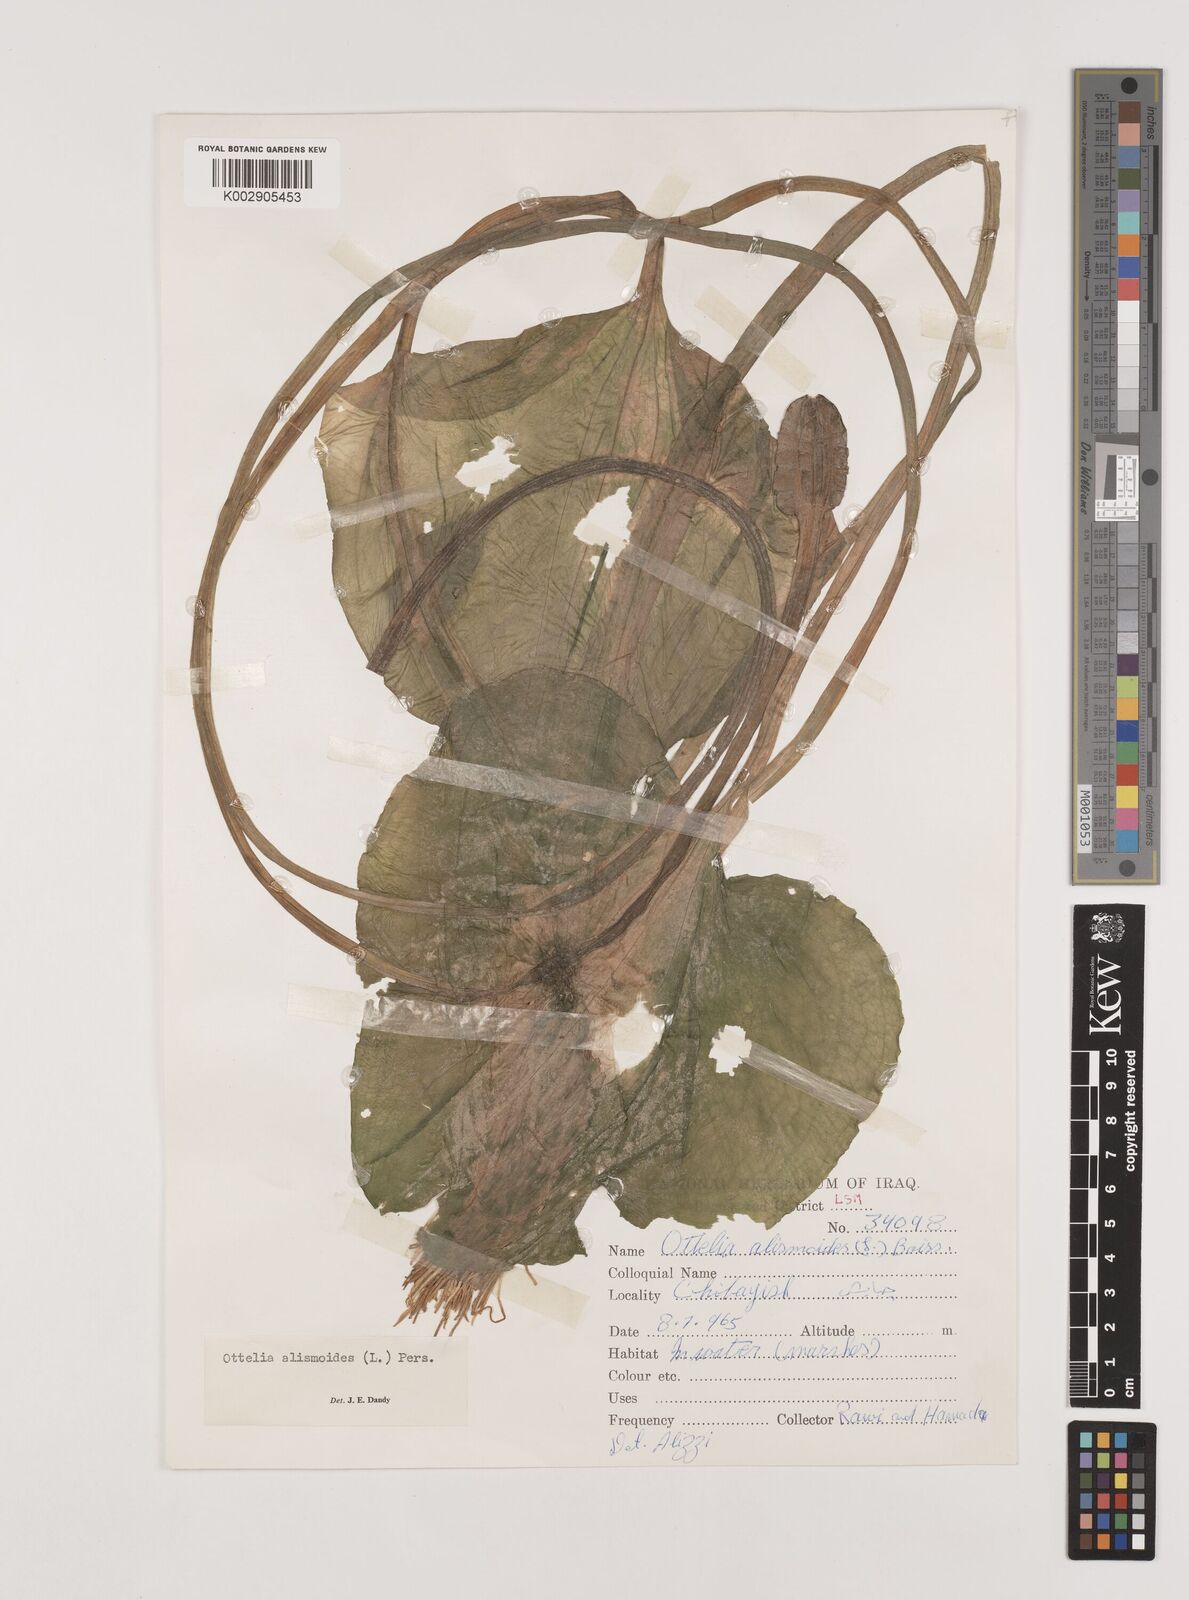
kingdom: Plantae
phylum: Tracheophyta
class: Liliopsida
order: Alismatales
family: Hydrocharitaceae
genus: Ottelia
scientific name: Ottelia alismoides
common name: Duck-lettuce
